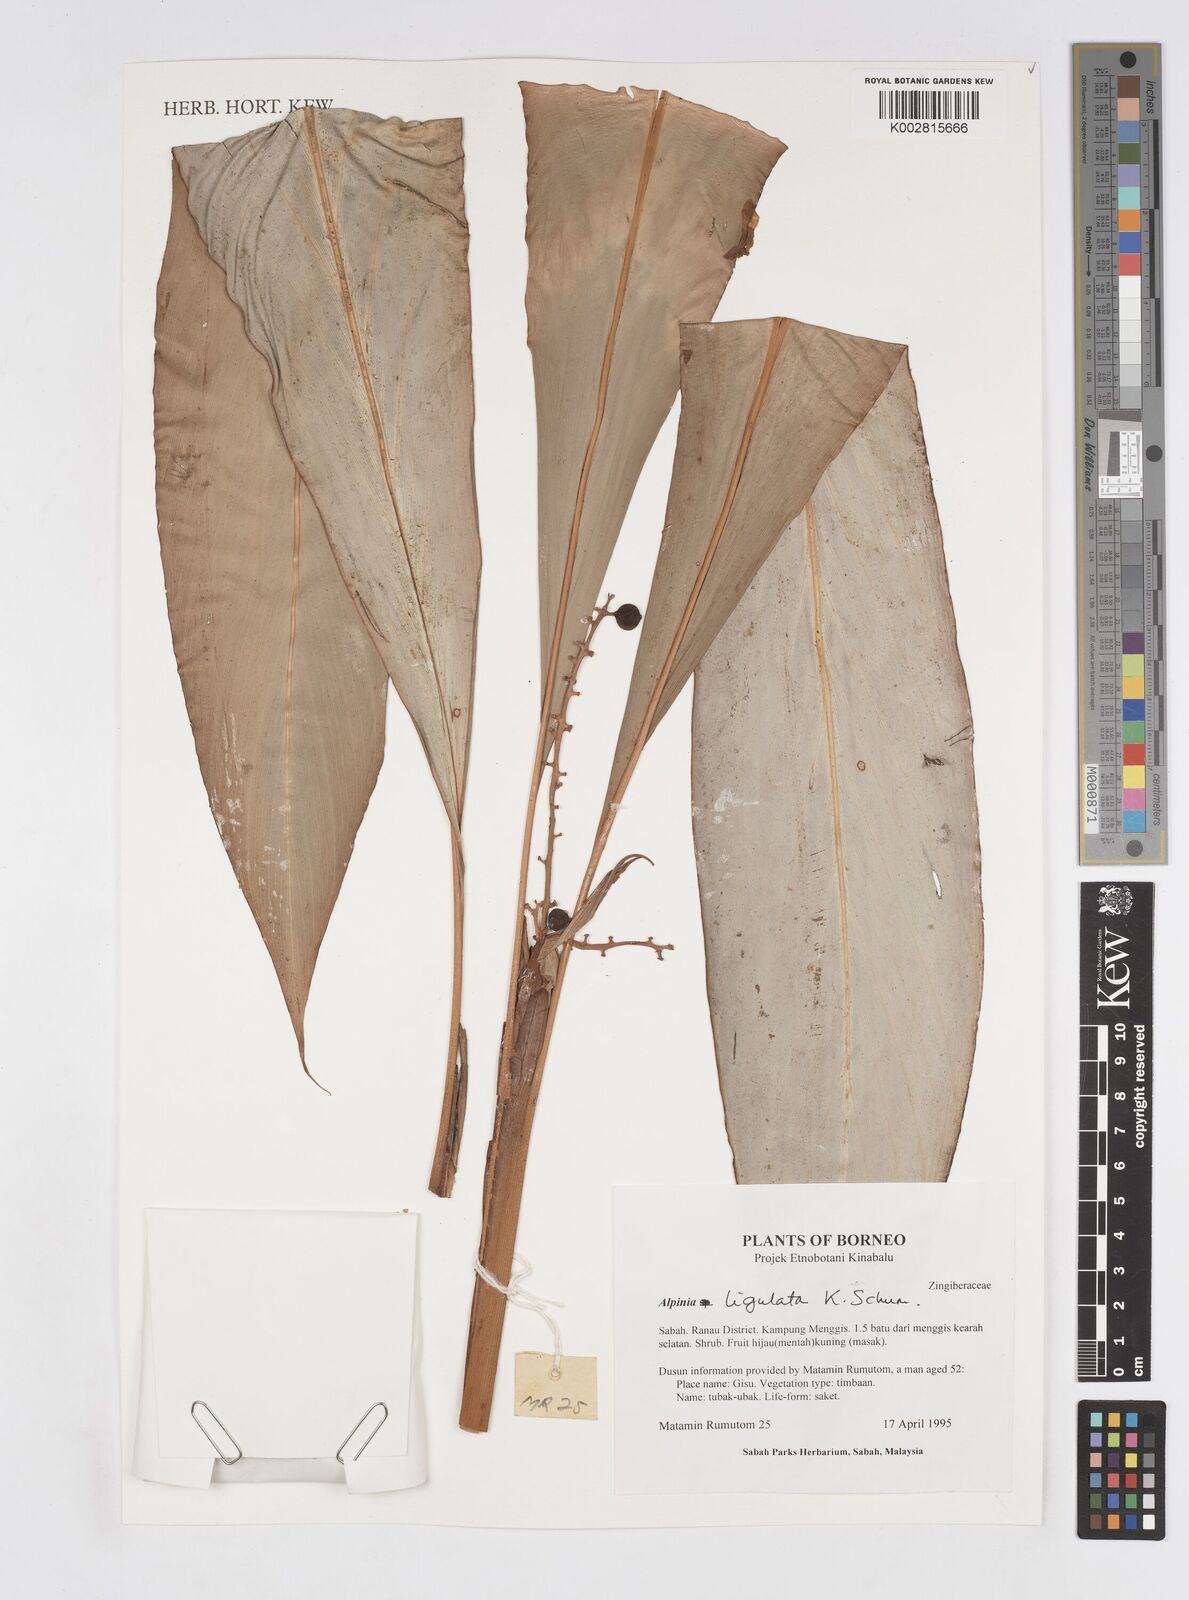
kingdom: Plantae
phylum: Tracheophyta
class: Liliopsida
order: Zingiberales
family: Zingiberaceae
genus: Alpinia
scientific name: Alpinia ligulata
